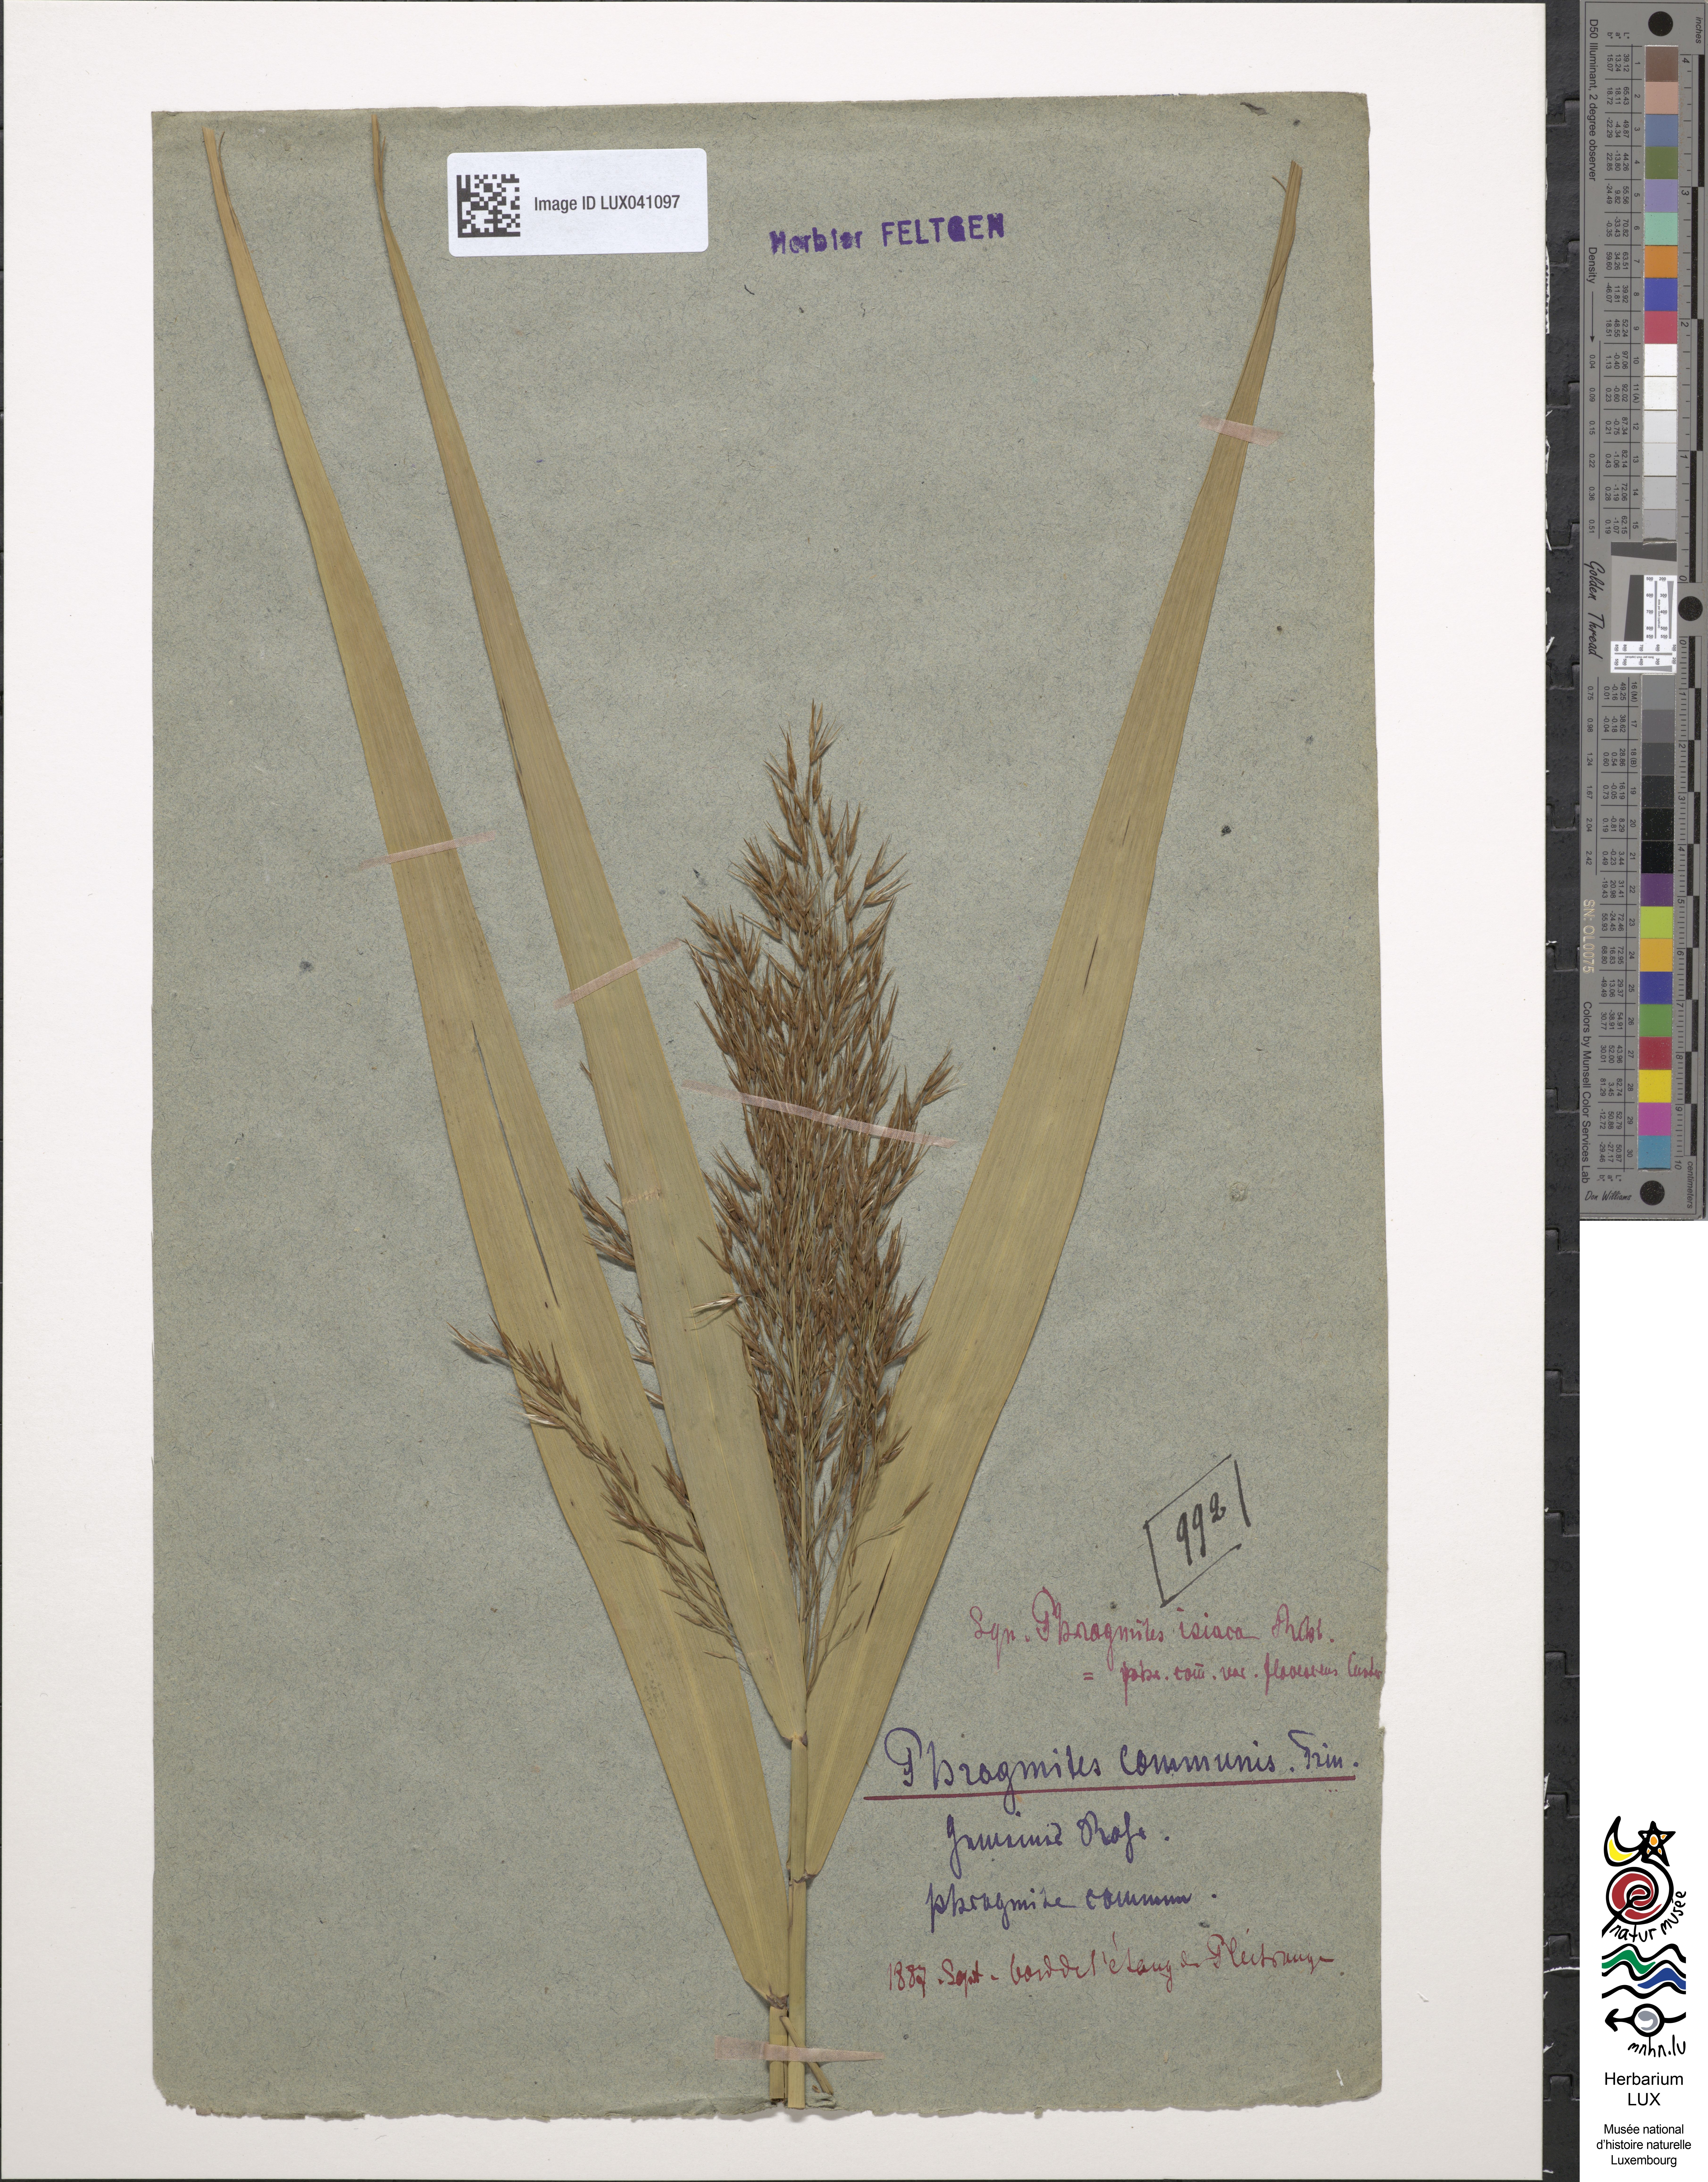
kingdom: Plantae
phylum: Tracheophyta
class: Liliopsida
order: Poales
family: Poaceae
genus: Phragmites
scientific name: Phragmites australis
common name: Common reed
